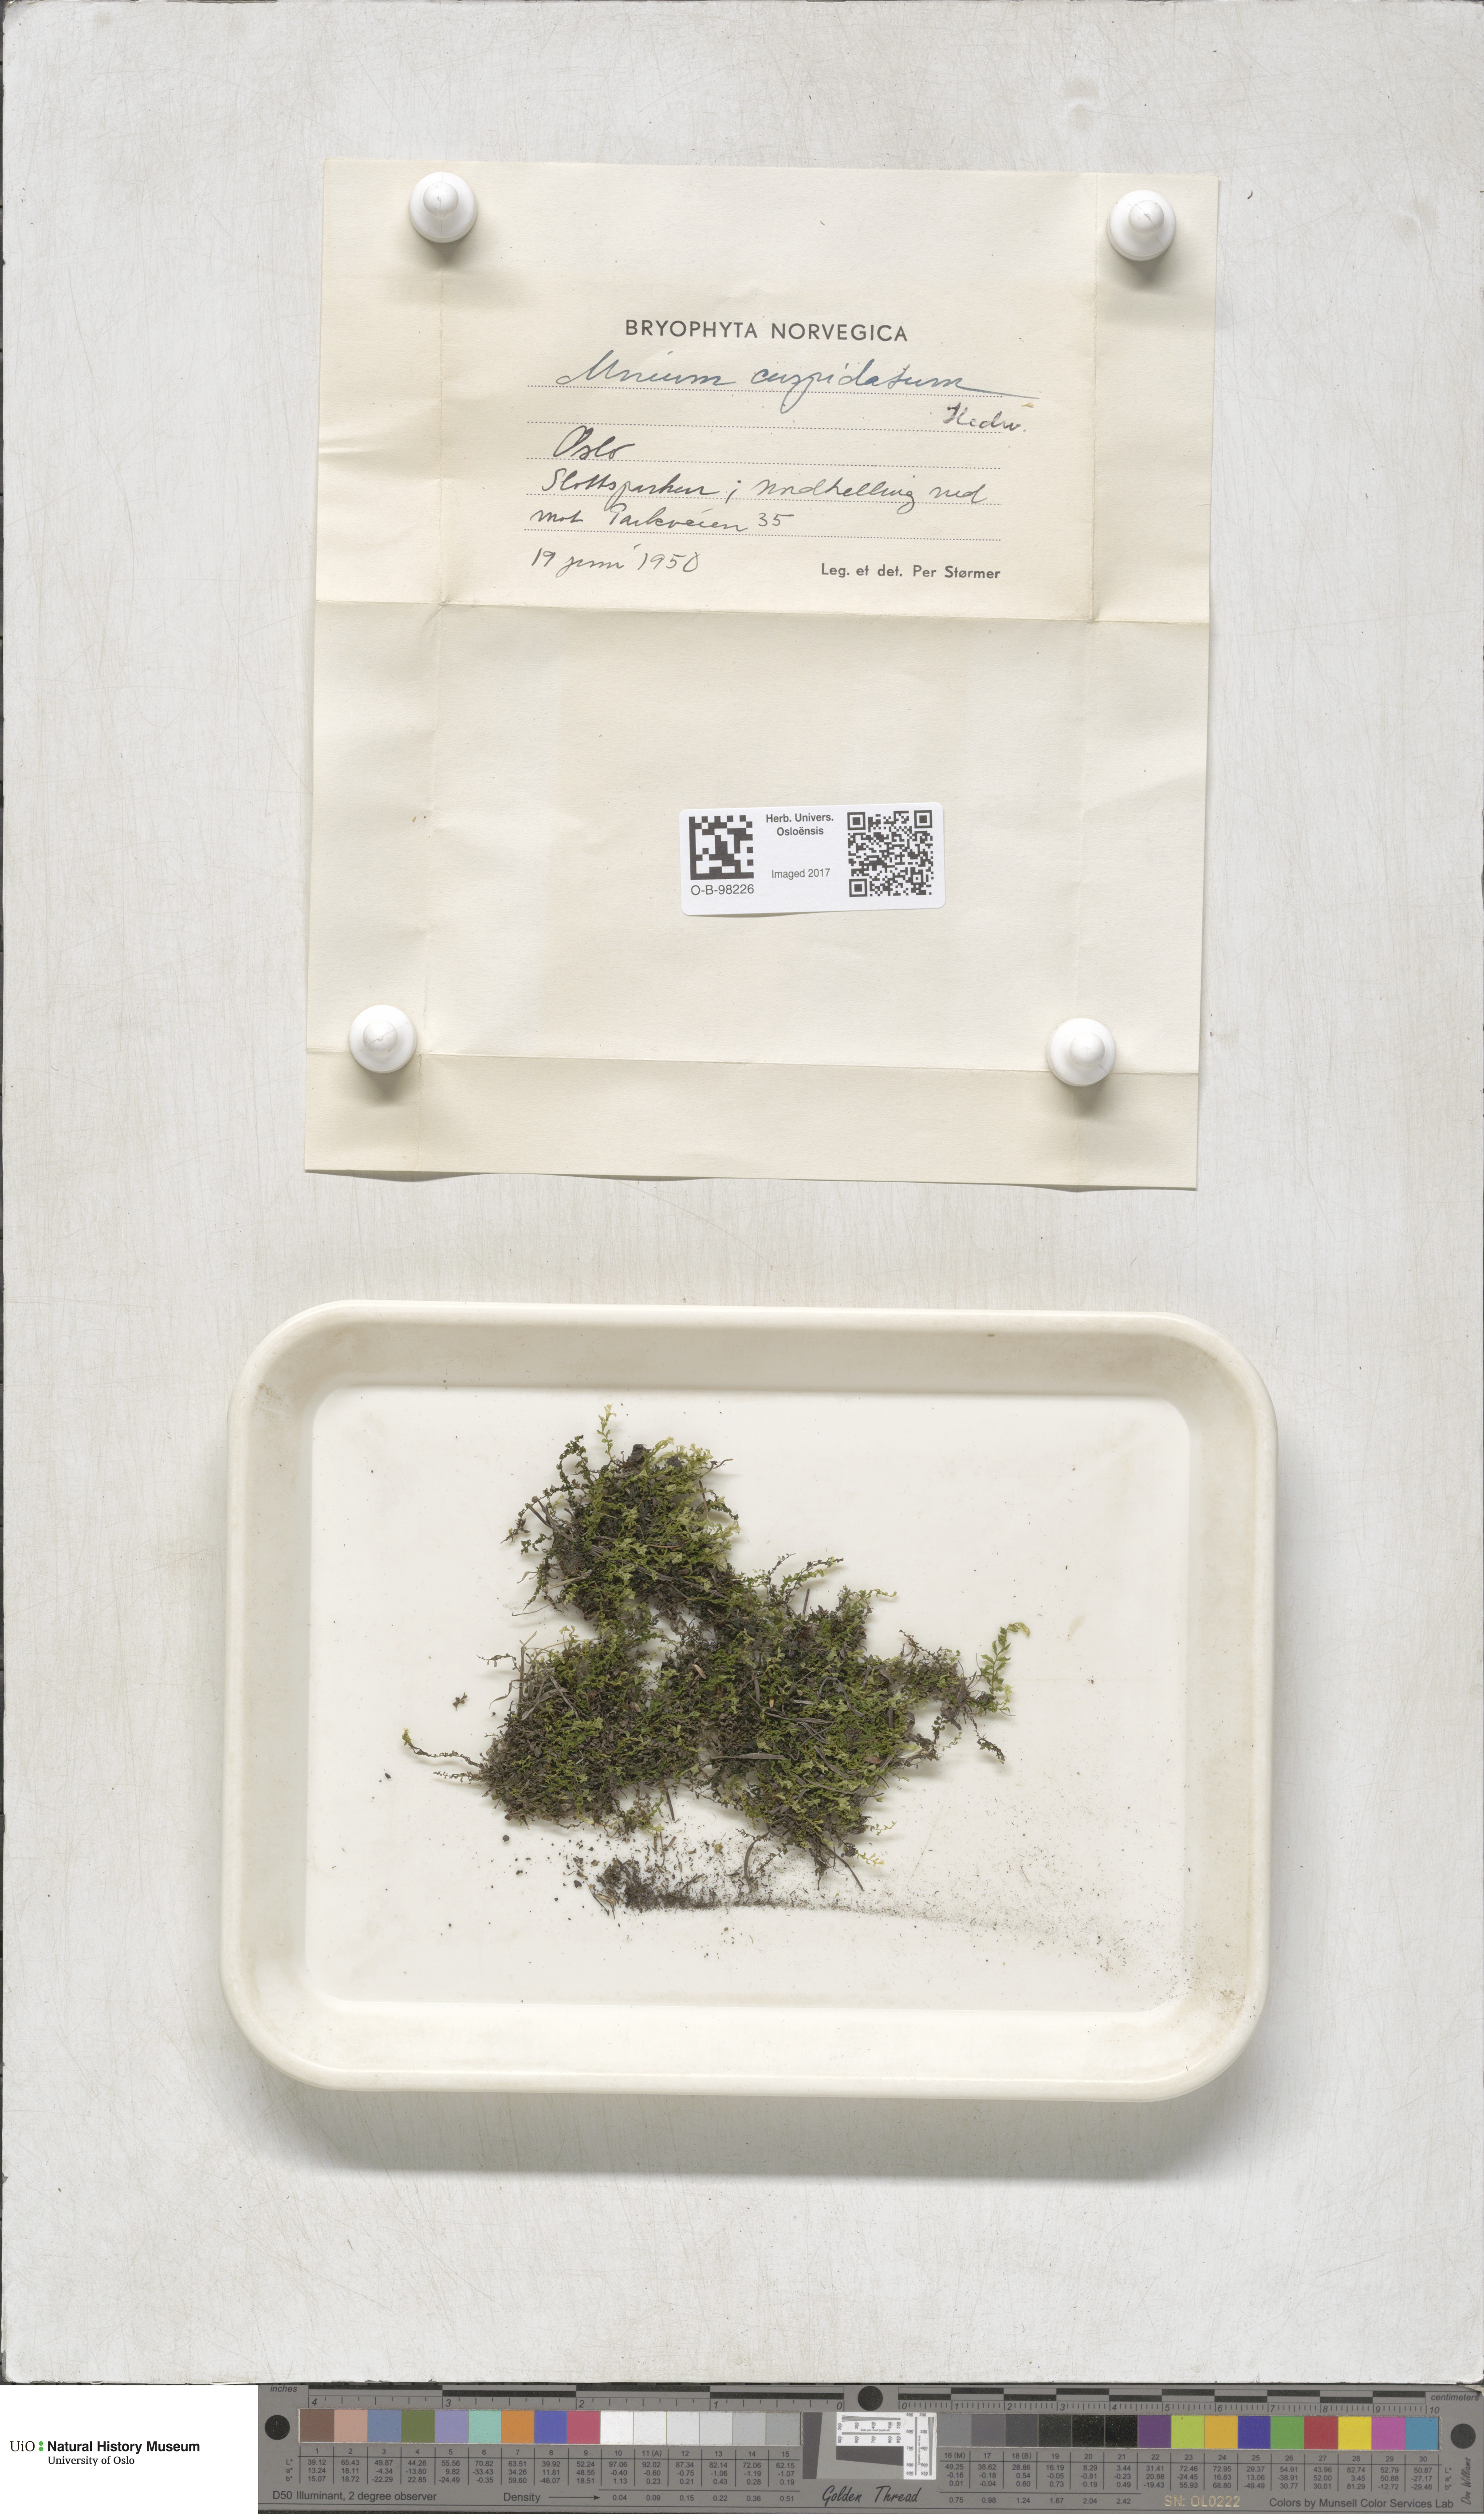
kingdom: Plantae
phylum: Bryophyta
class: Bryopsida
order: Bryales
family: Mniaceae
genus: Plagiomnium
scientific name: Plagiomnium affine
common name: Many-fruited thyme-moss
